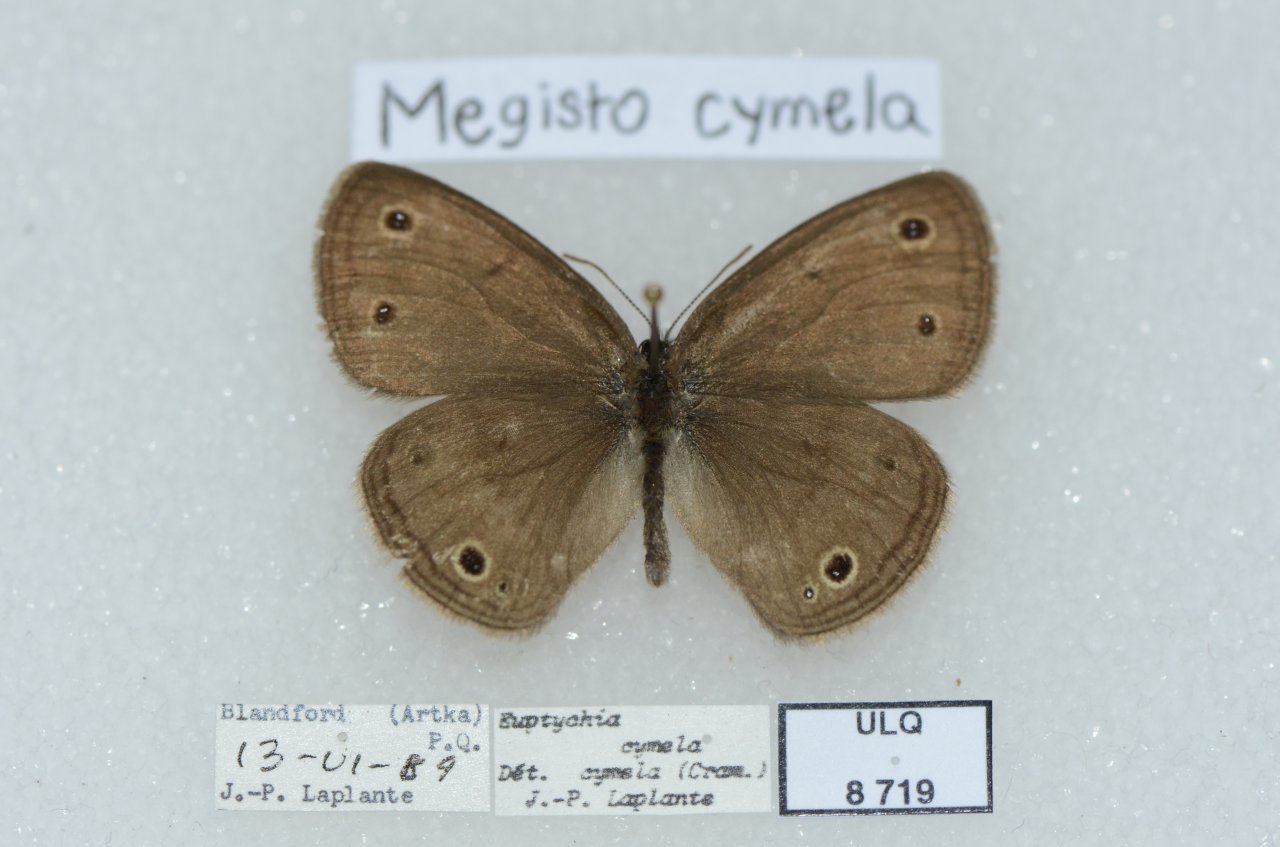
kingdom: Animalia
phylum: Arthropoda
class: Insecta
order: Lepidoptera
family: Nymphalidae
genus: Euptychia
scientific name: Euptychia cymela
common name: Little Wood Satyr
